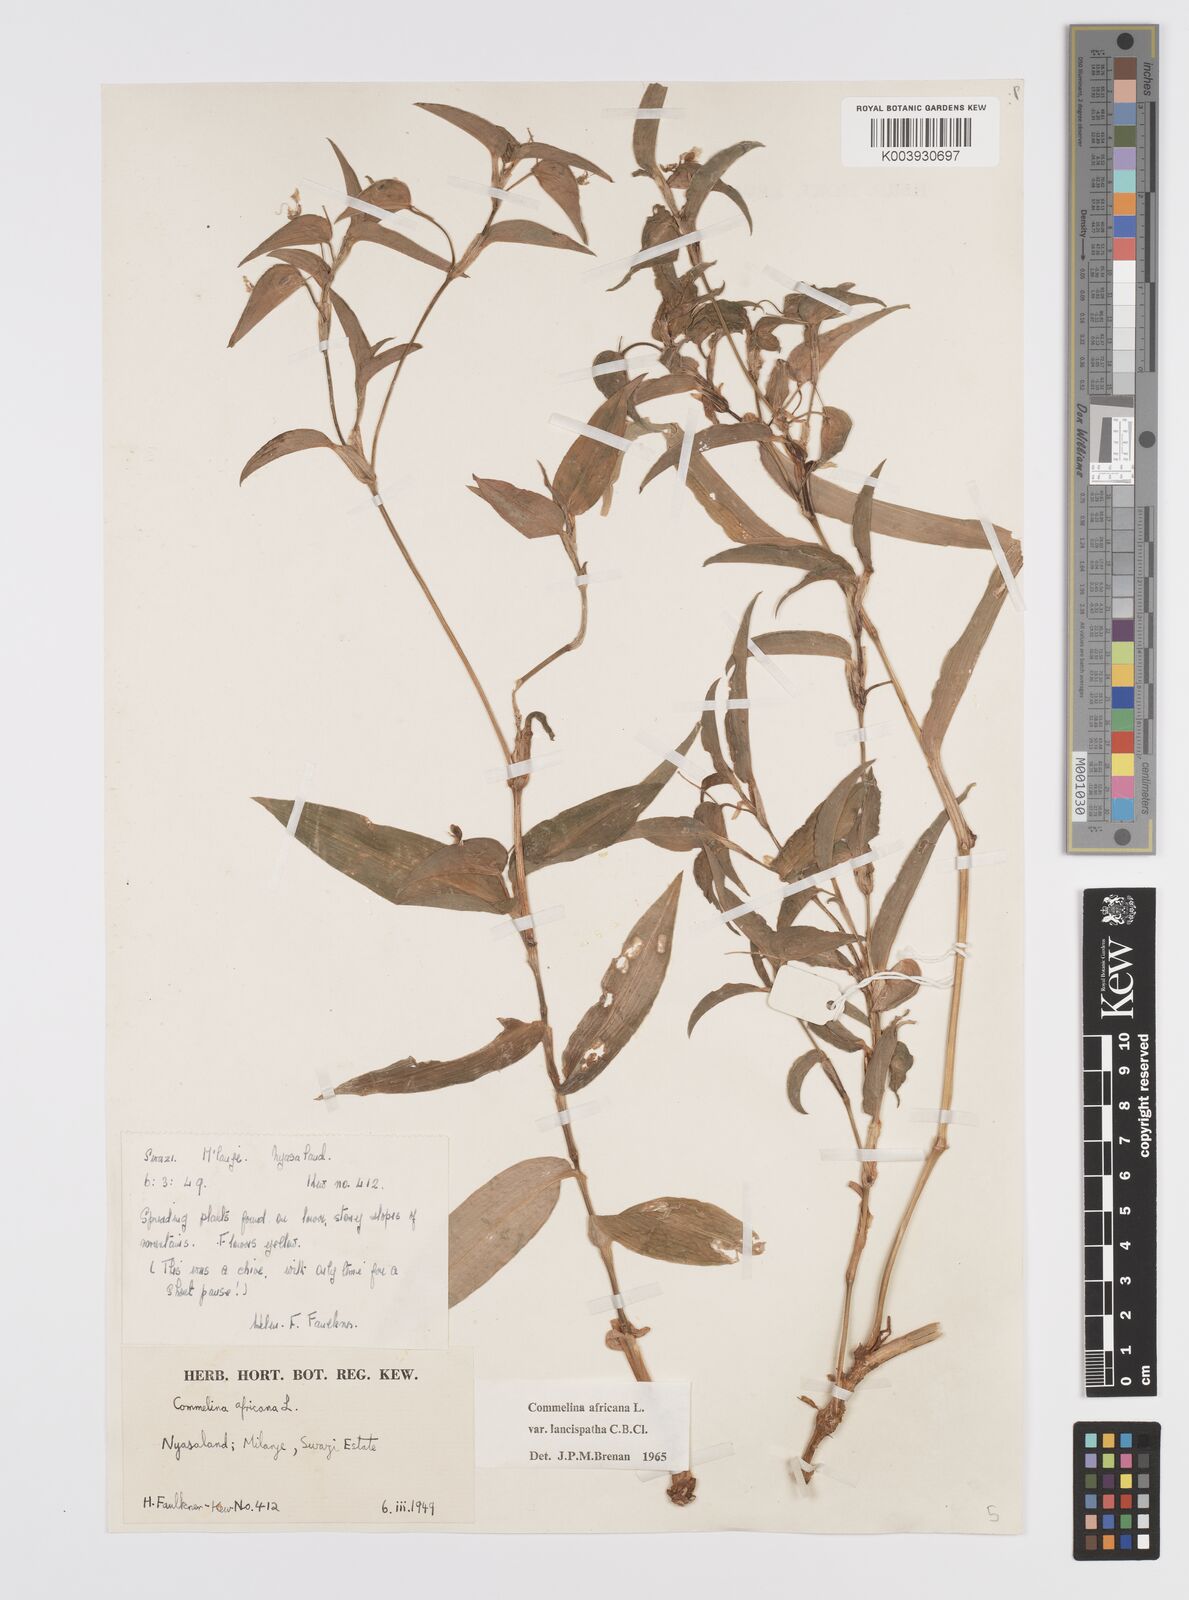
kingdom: Plantae
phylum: Tracheophyta
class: Liliopsida
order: Commelinales
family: Commelinaceae
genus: Commelina
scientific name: Commelina africana
